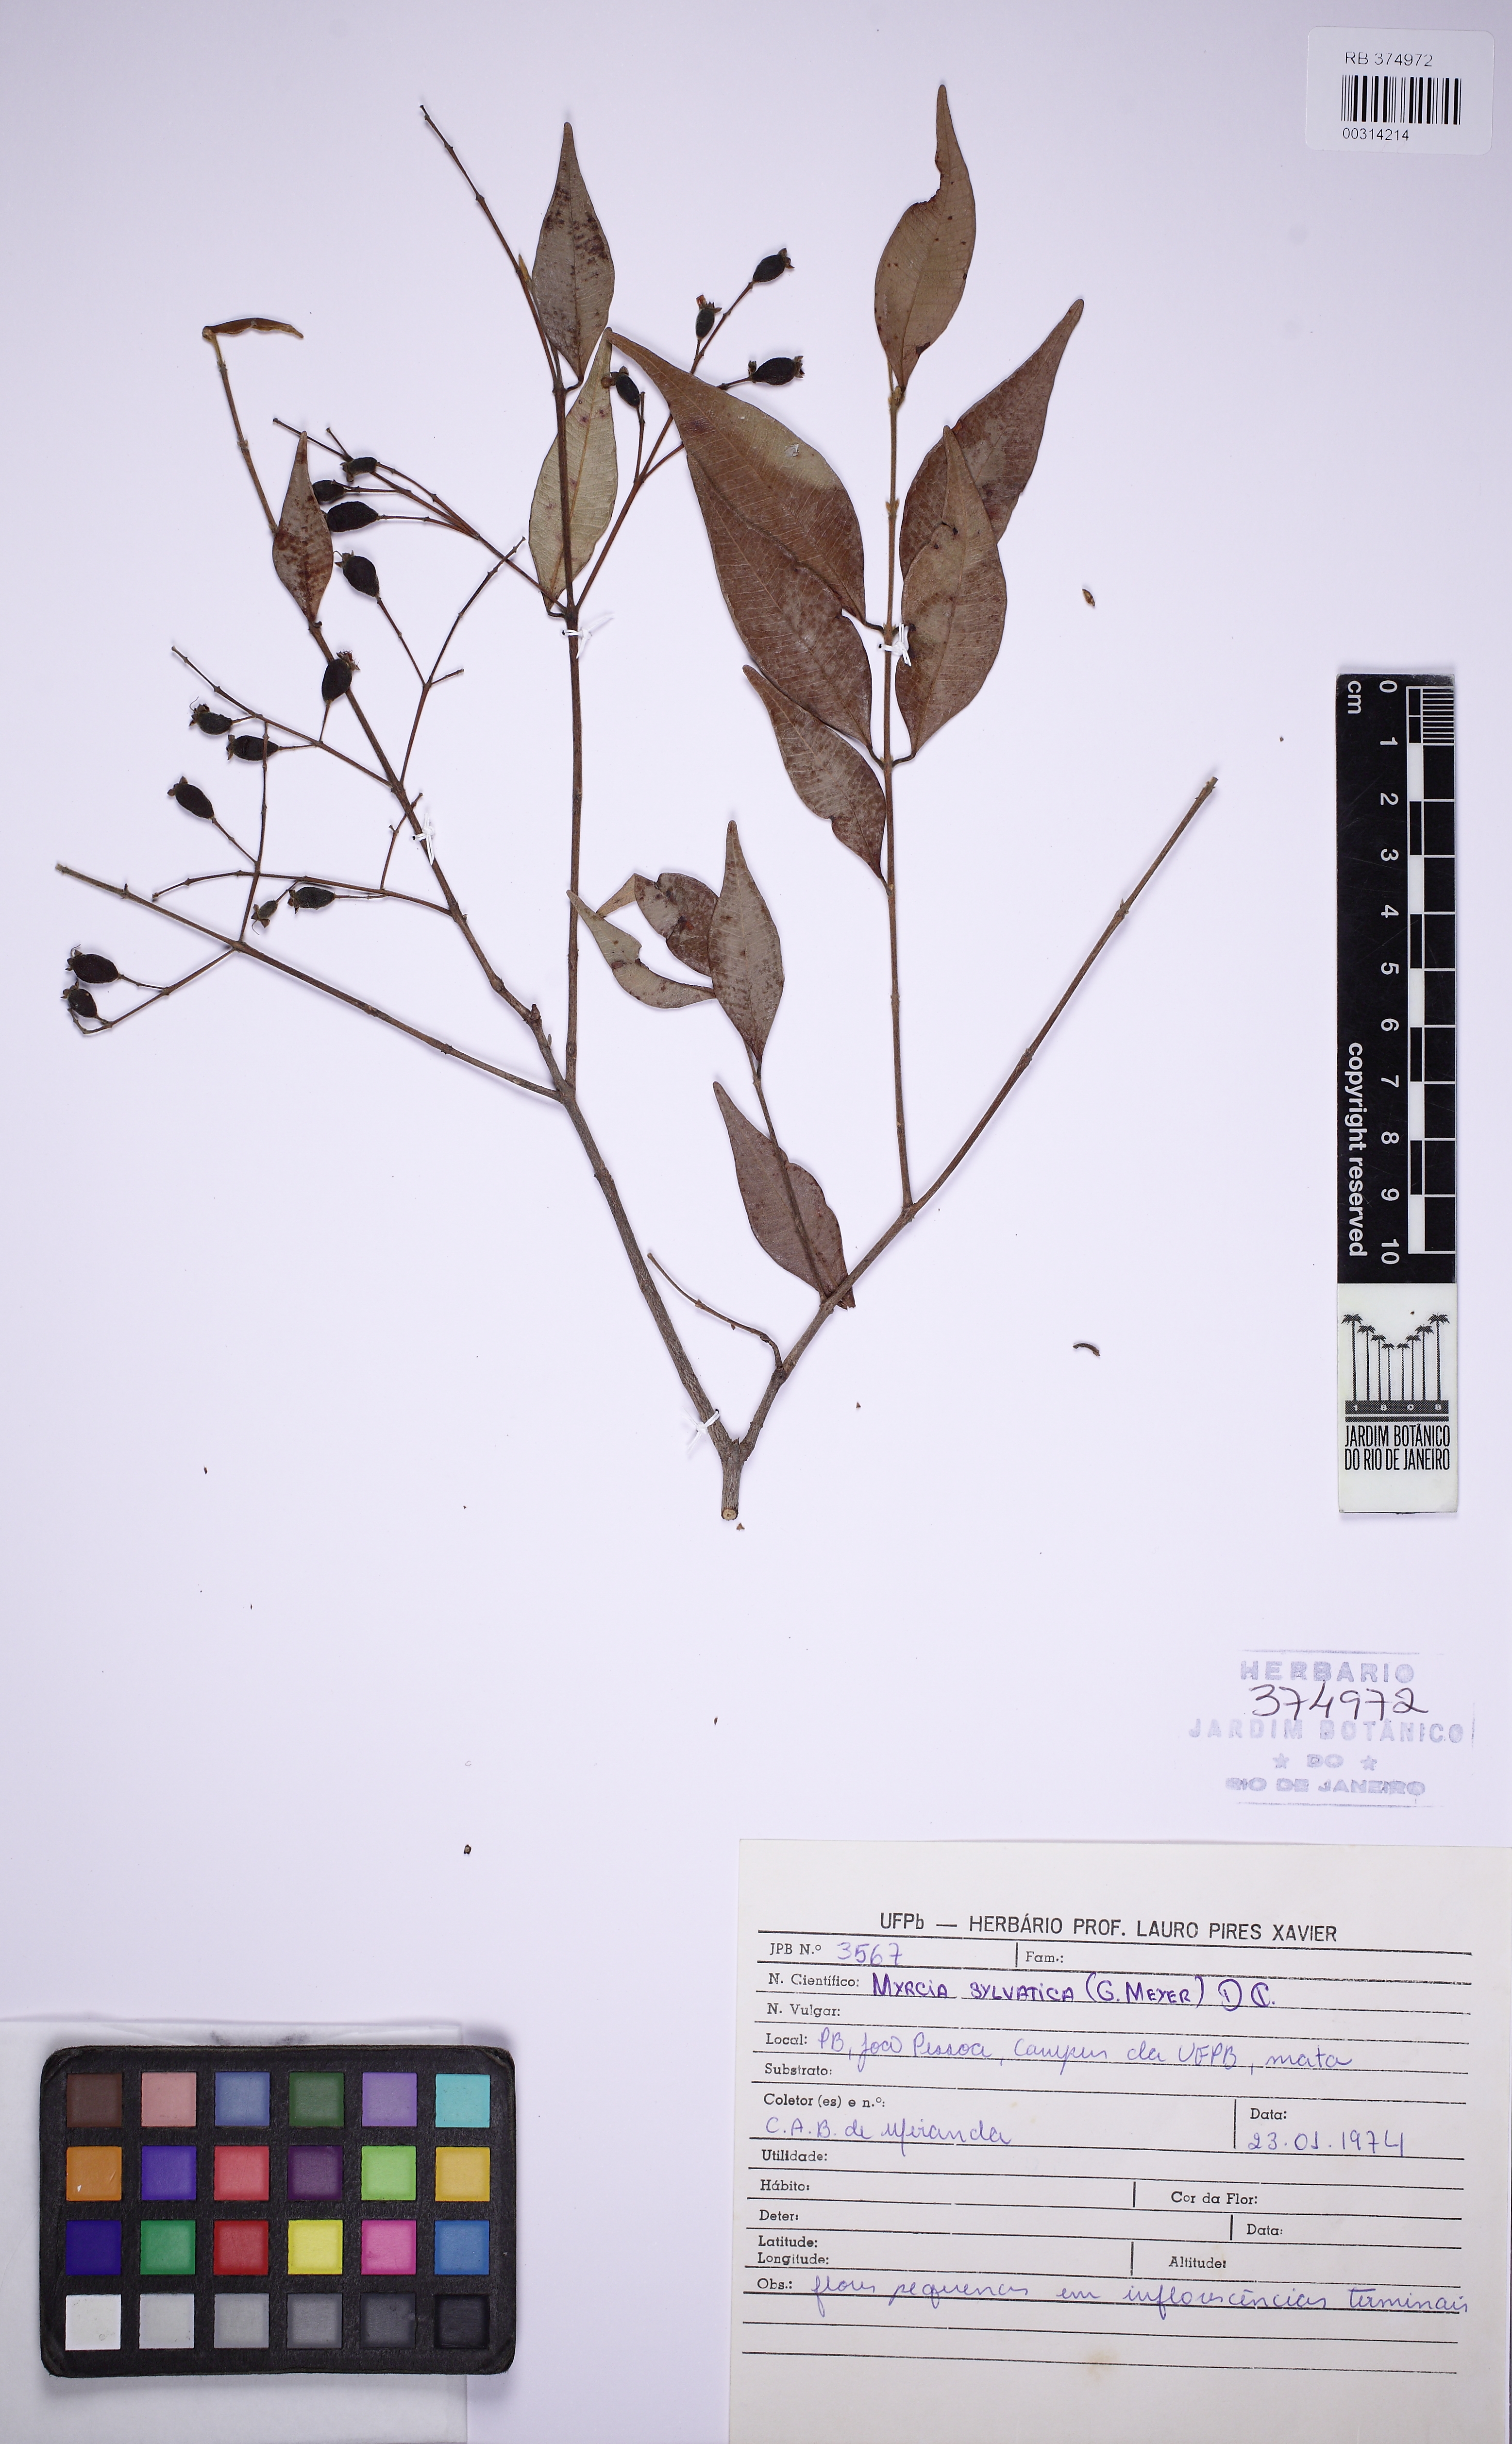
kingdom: Plantae
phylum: Tracheophyta
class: Magnoliopsida
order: Myrtales
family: Myrtaceae
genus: Myrcia
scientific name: Myrcia sylvatica
